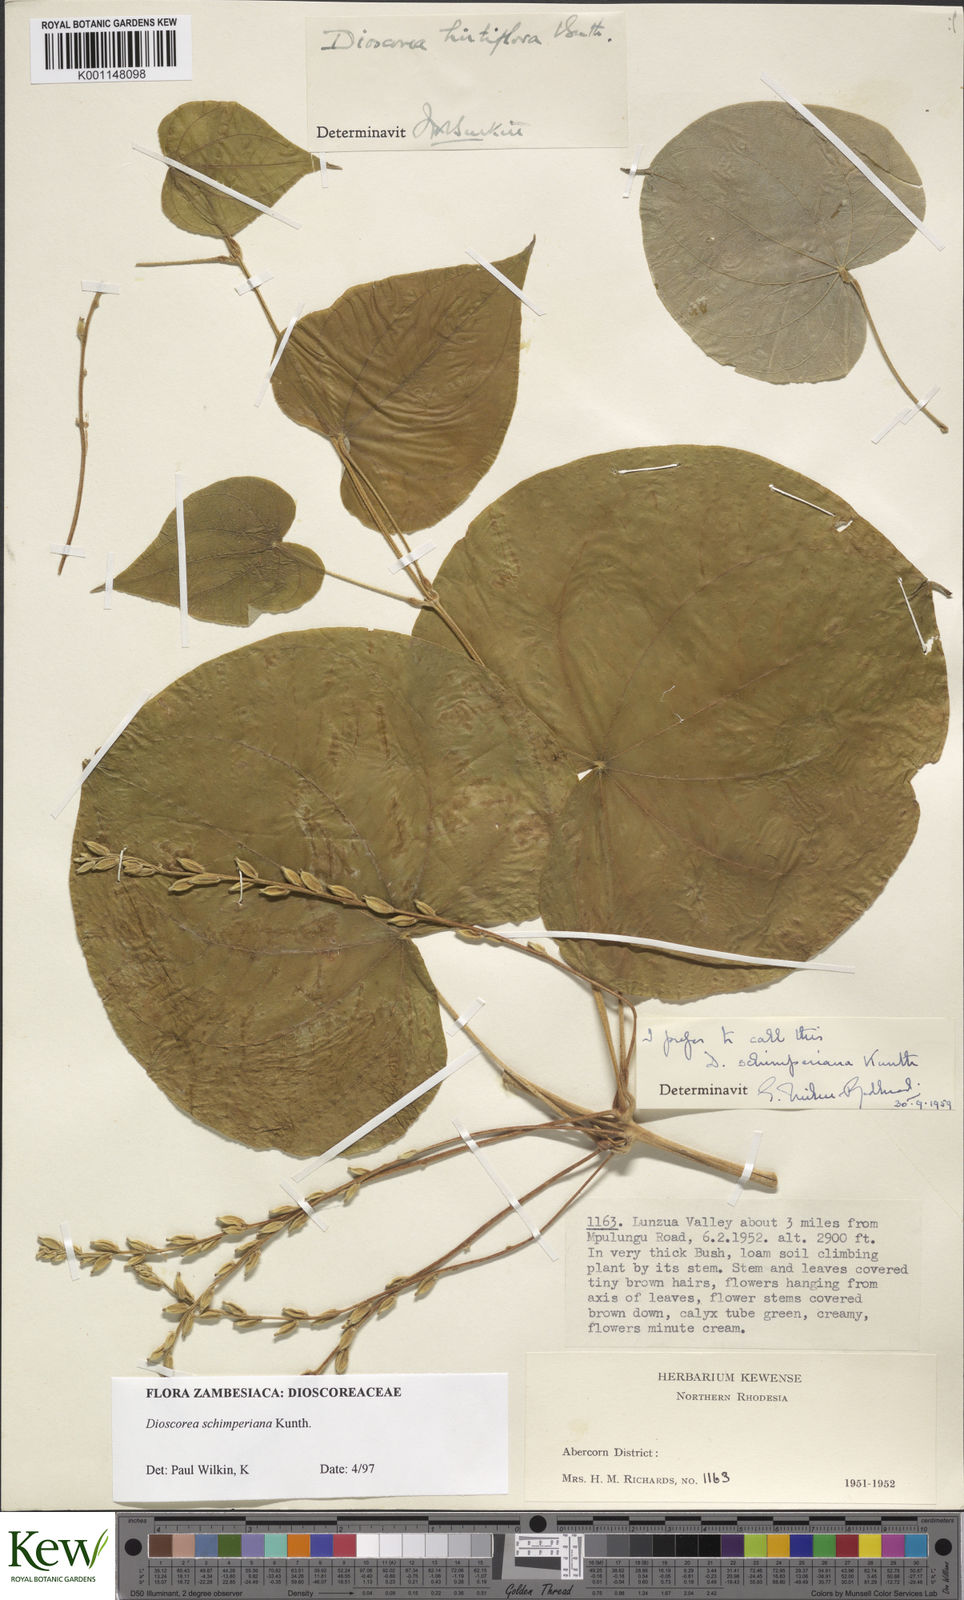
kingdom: Plantae
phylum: Tracheophyta
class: Liliopsida
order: Dioscoreales
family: Dioscoreaceae
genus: Dioscorea
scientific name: Dioscorea schimperiana
